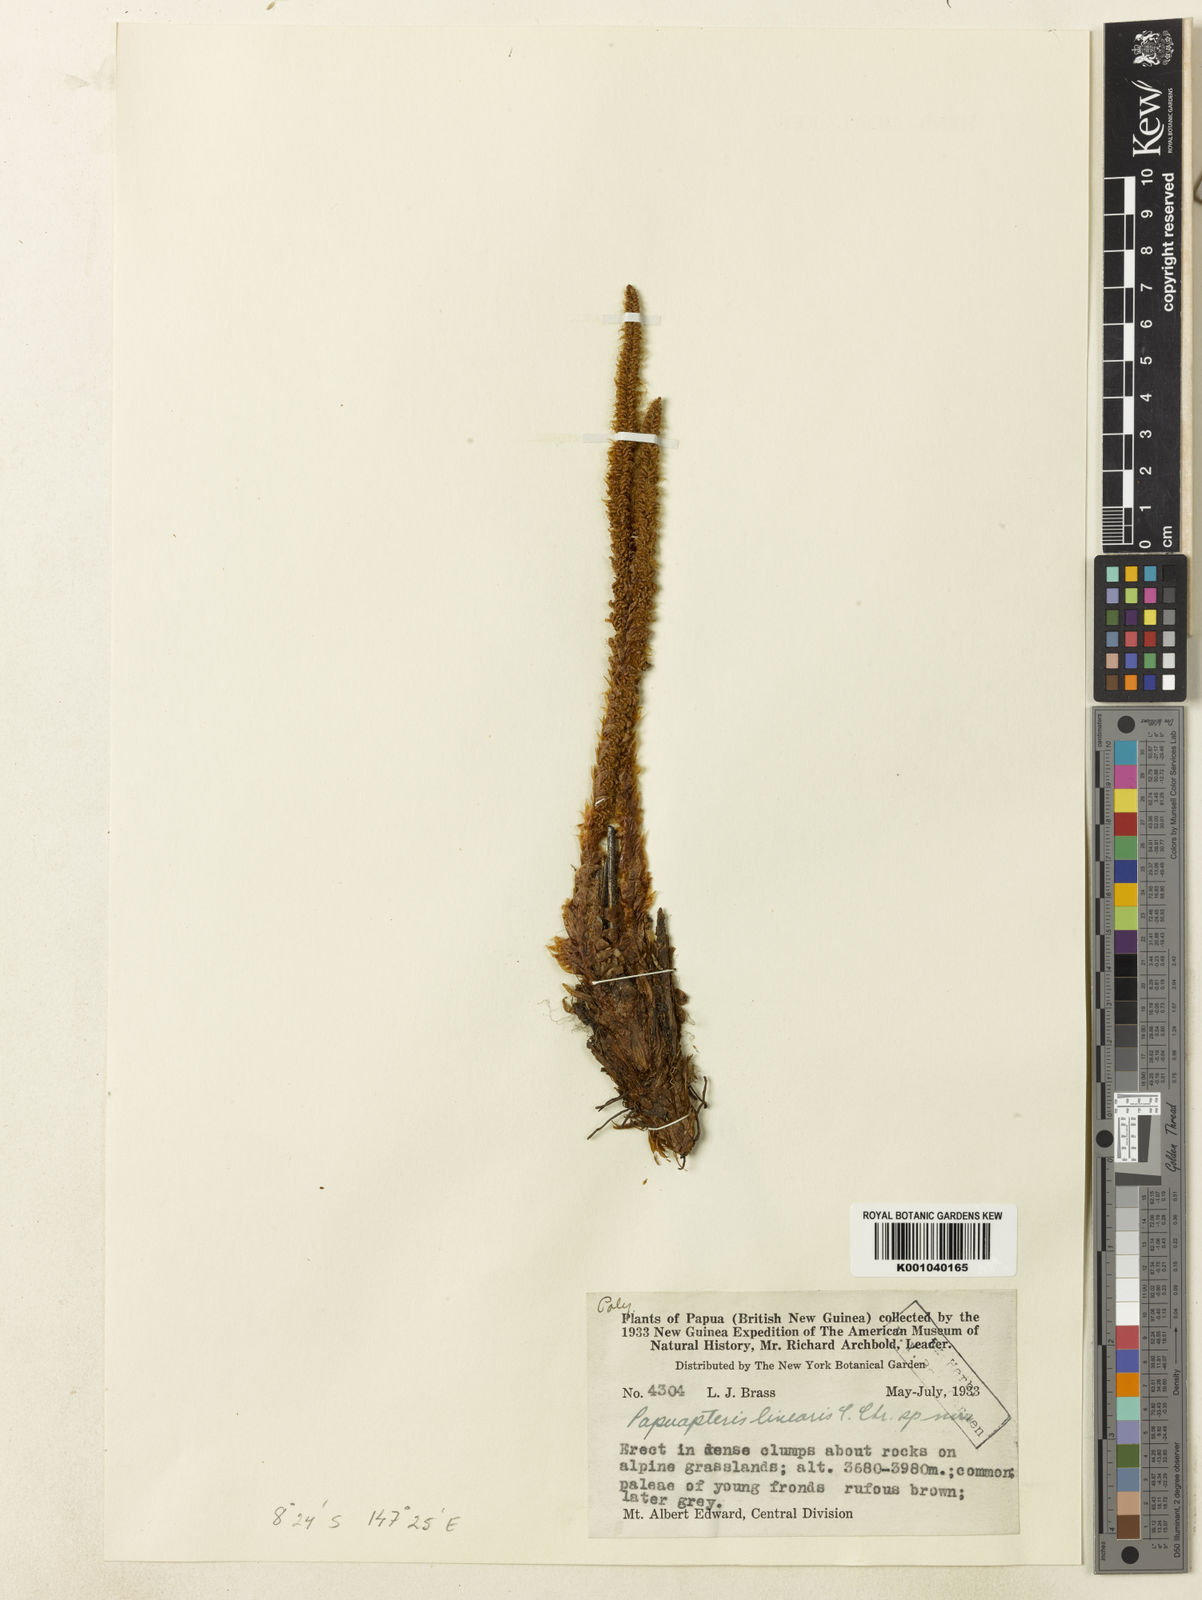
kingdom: Plantae
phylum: Tracheophyta
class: Polypodiopsida
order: Polypodiales
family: Dryopteridaceae
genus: Polystichum
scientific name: Polystichum lineare
